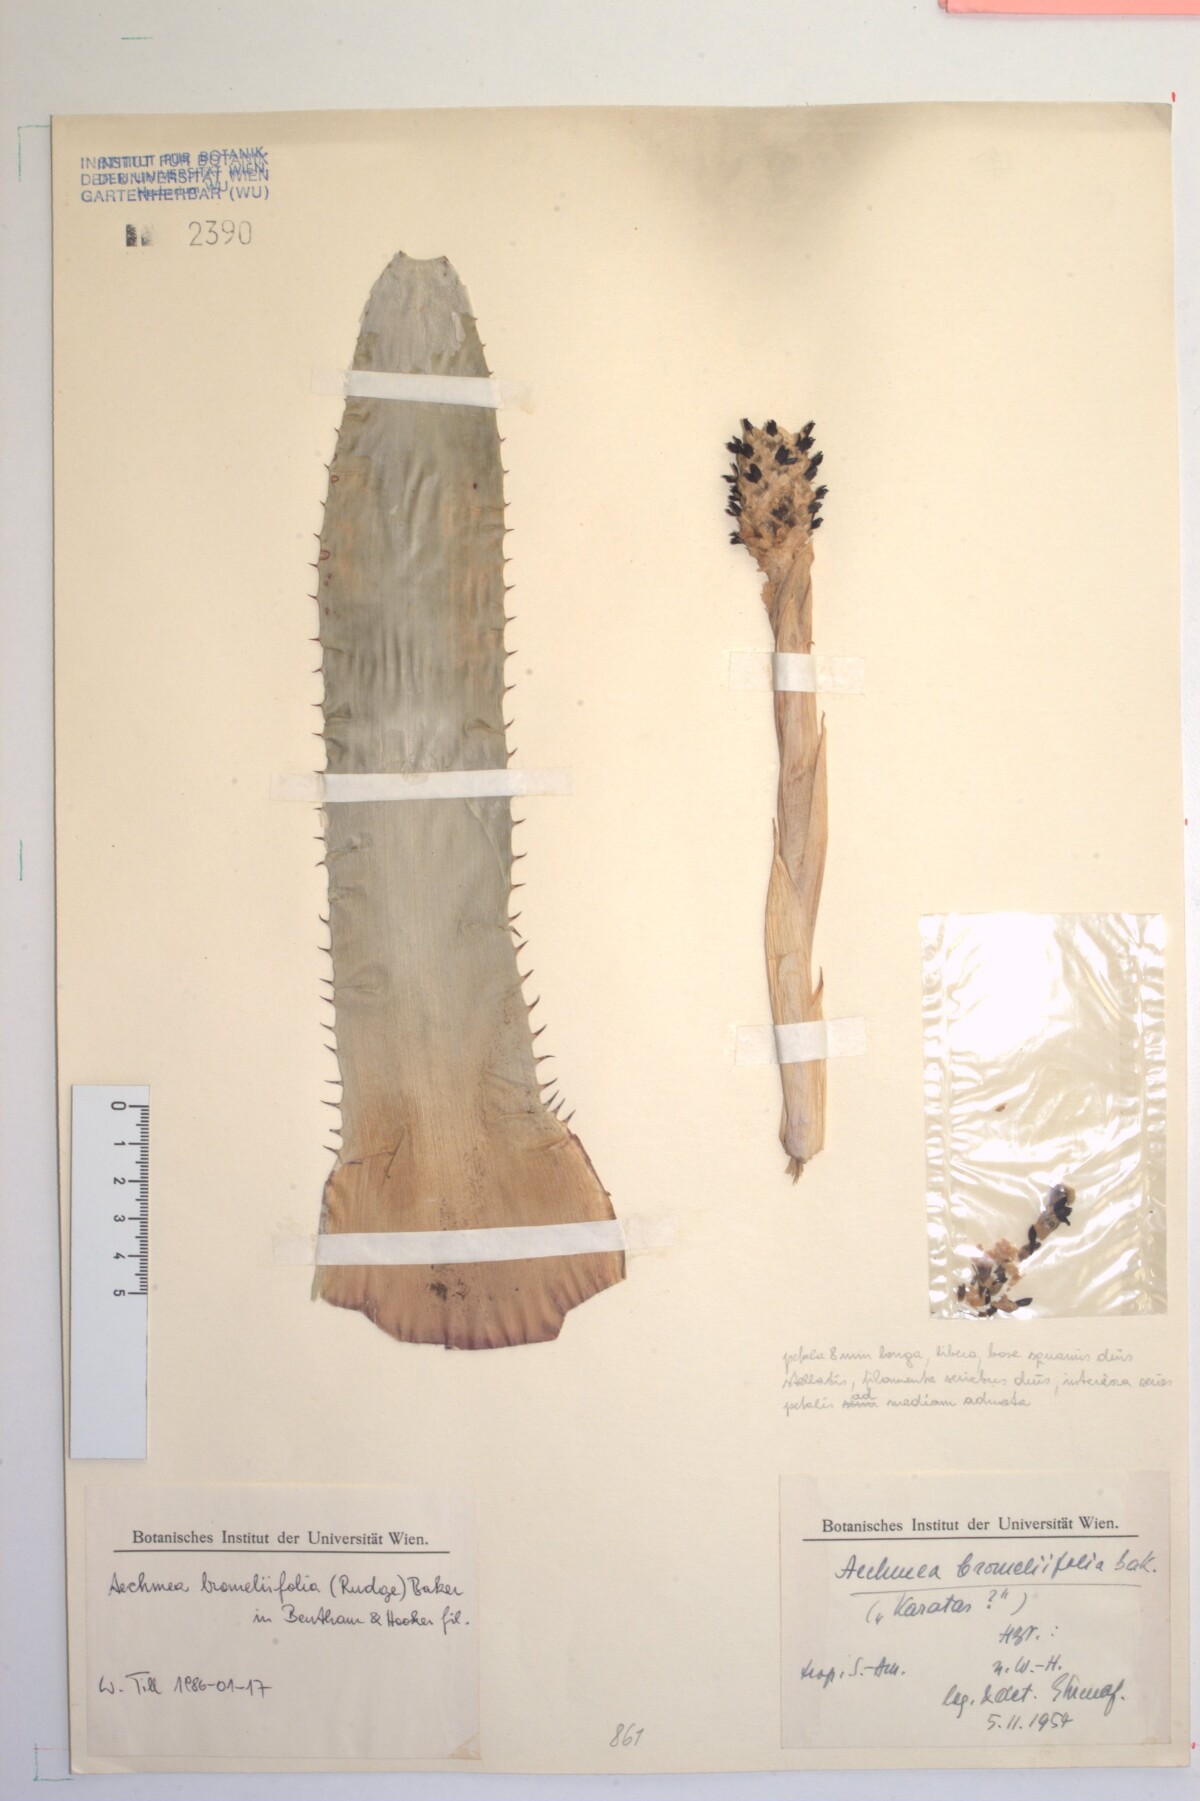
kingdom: Plantae
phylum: Tracheophyta
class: Liliopsida
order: Poales
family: Bromeliaceae
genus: Aechmea
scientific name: Aechmea bromeliifolia
